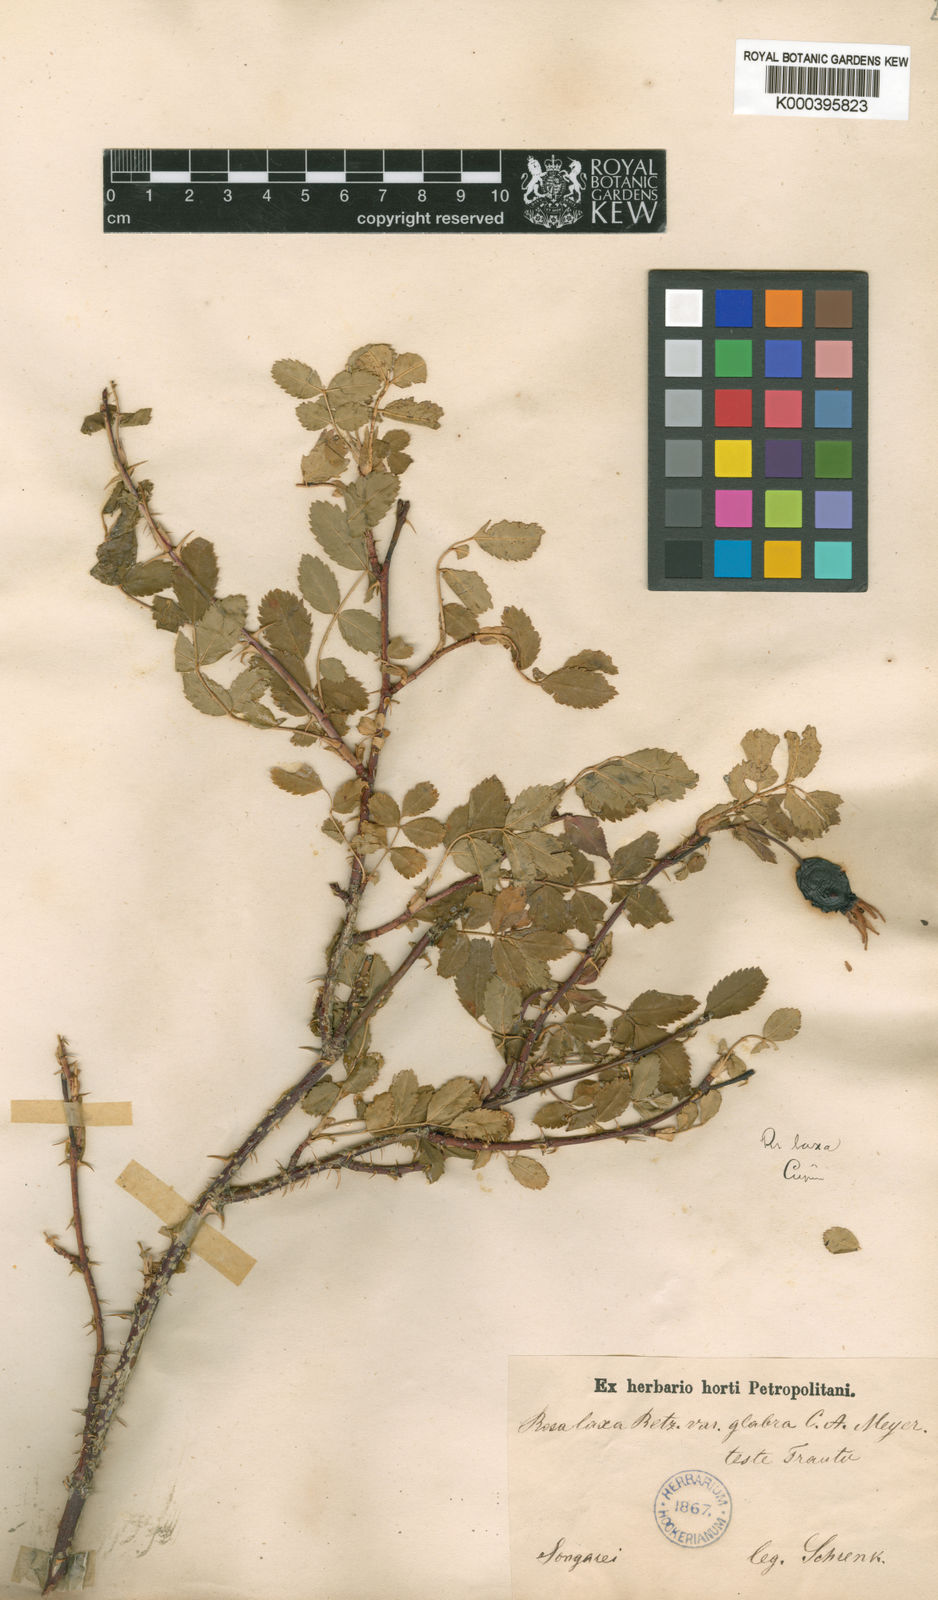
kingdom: Plantae
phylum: Tracheophyta
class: Magnoliopsida
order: Rosales
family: Rosaceae
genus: Rosa
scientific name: Rosa laxa
